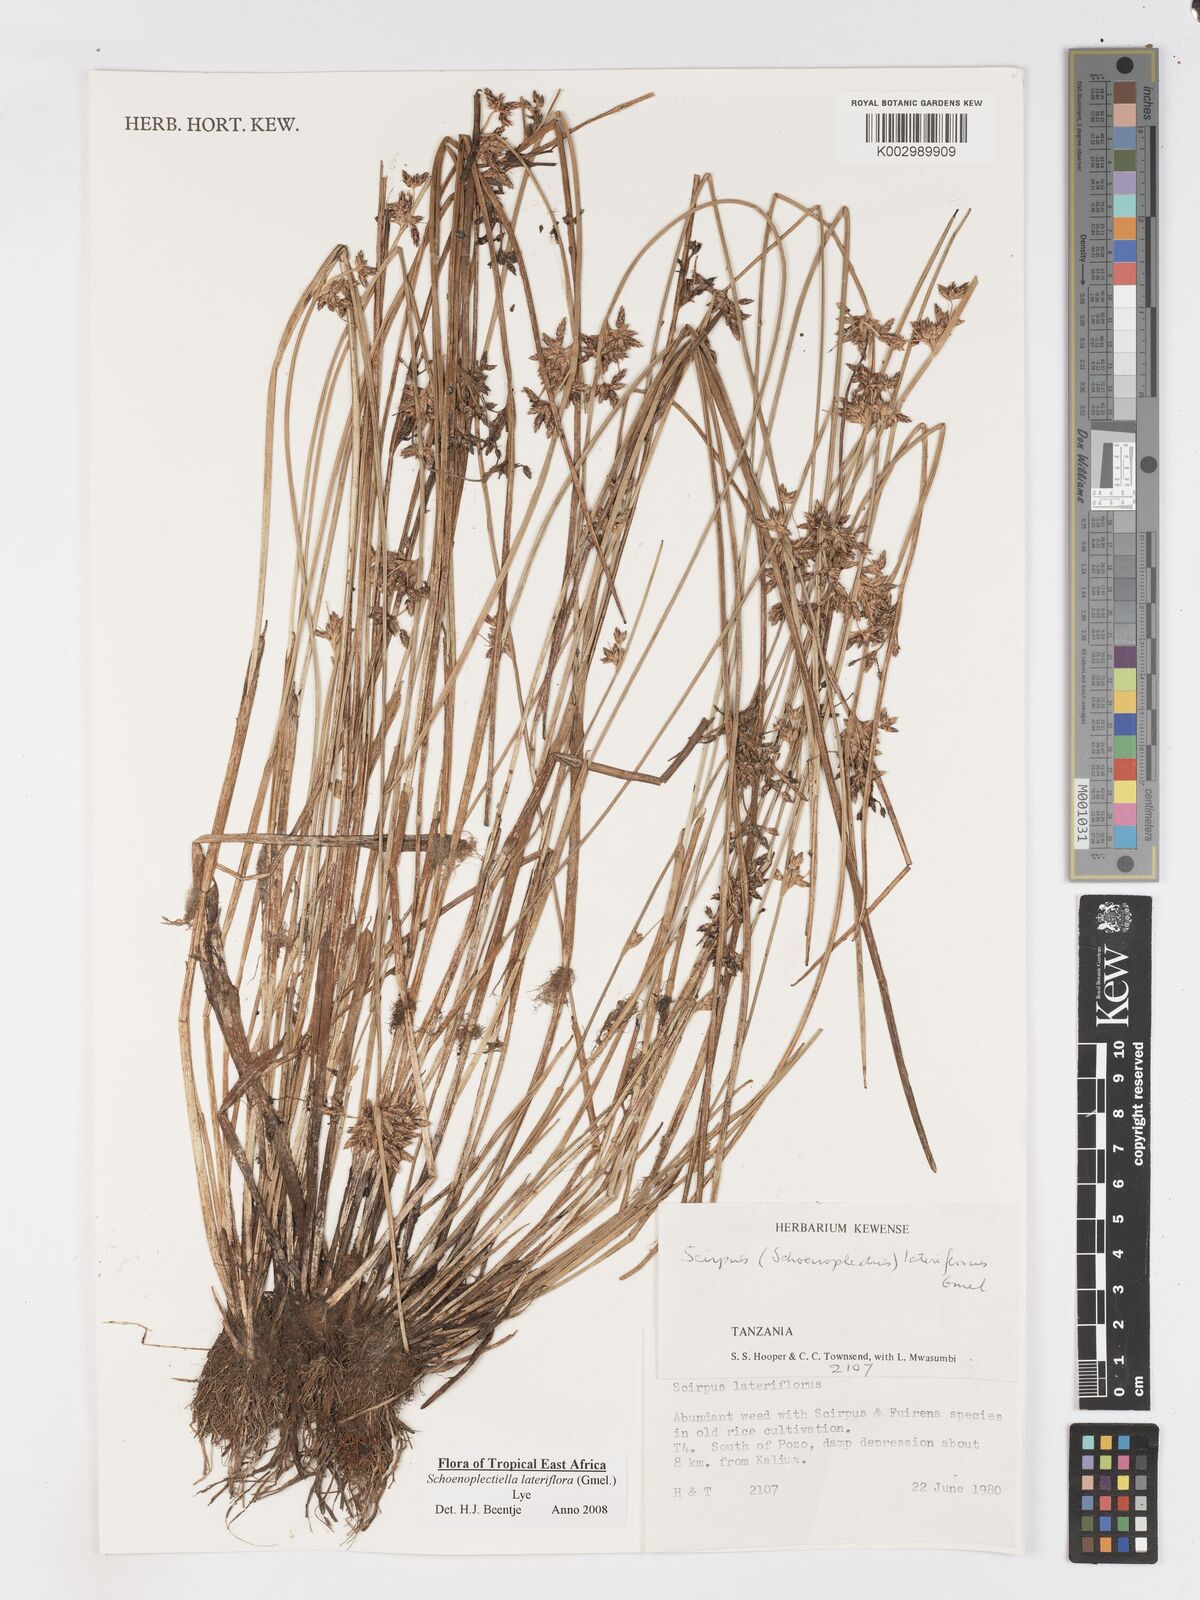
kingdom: Plantae
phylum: Tracheophyta
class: Liliopsida
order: Poales
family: Cyperaceae
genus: Schoenoplectiella
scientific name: Schoenoplectiella lateriflora
